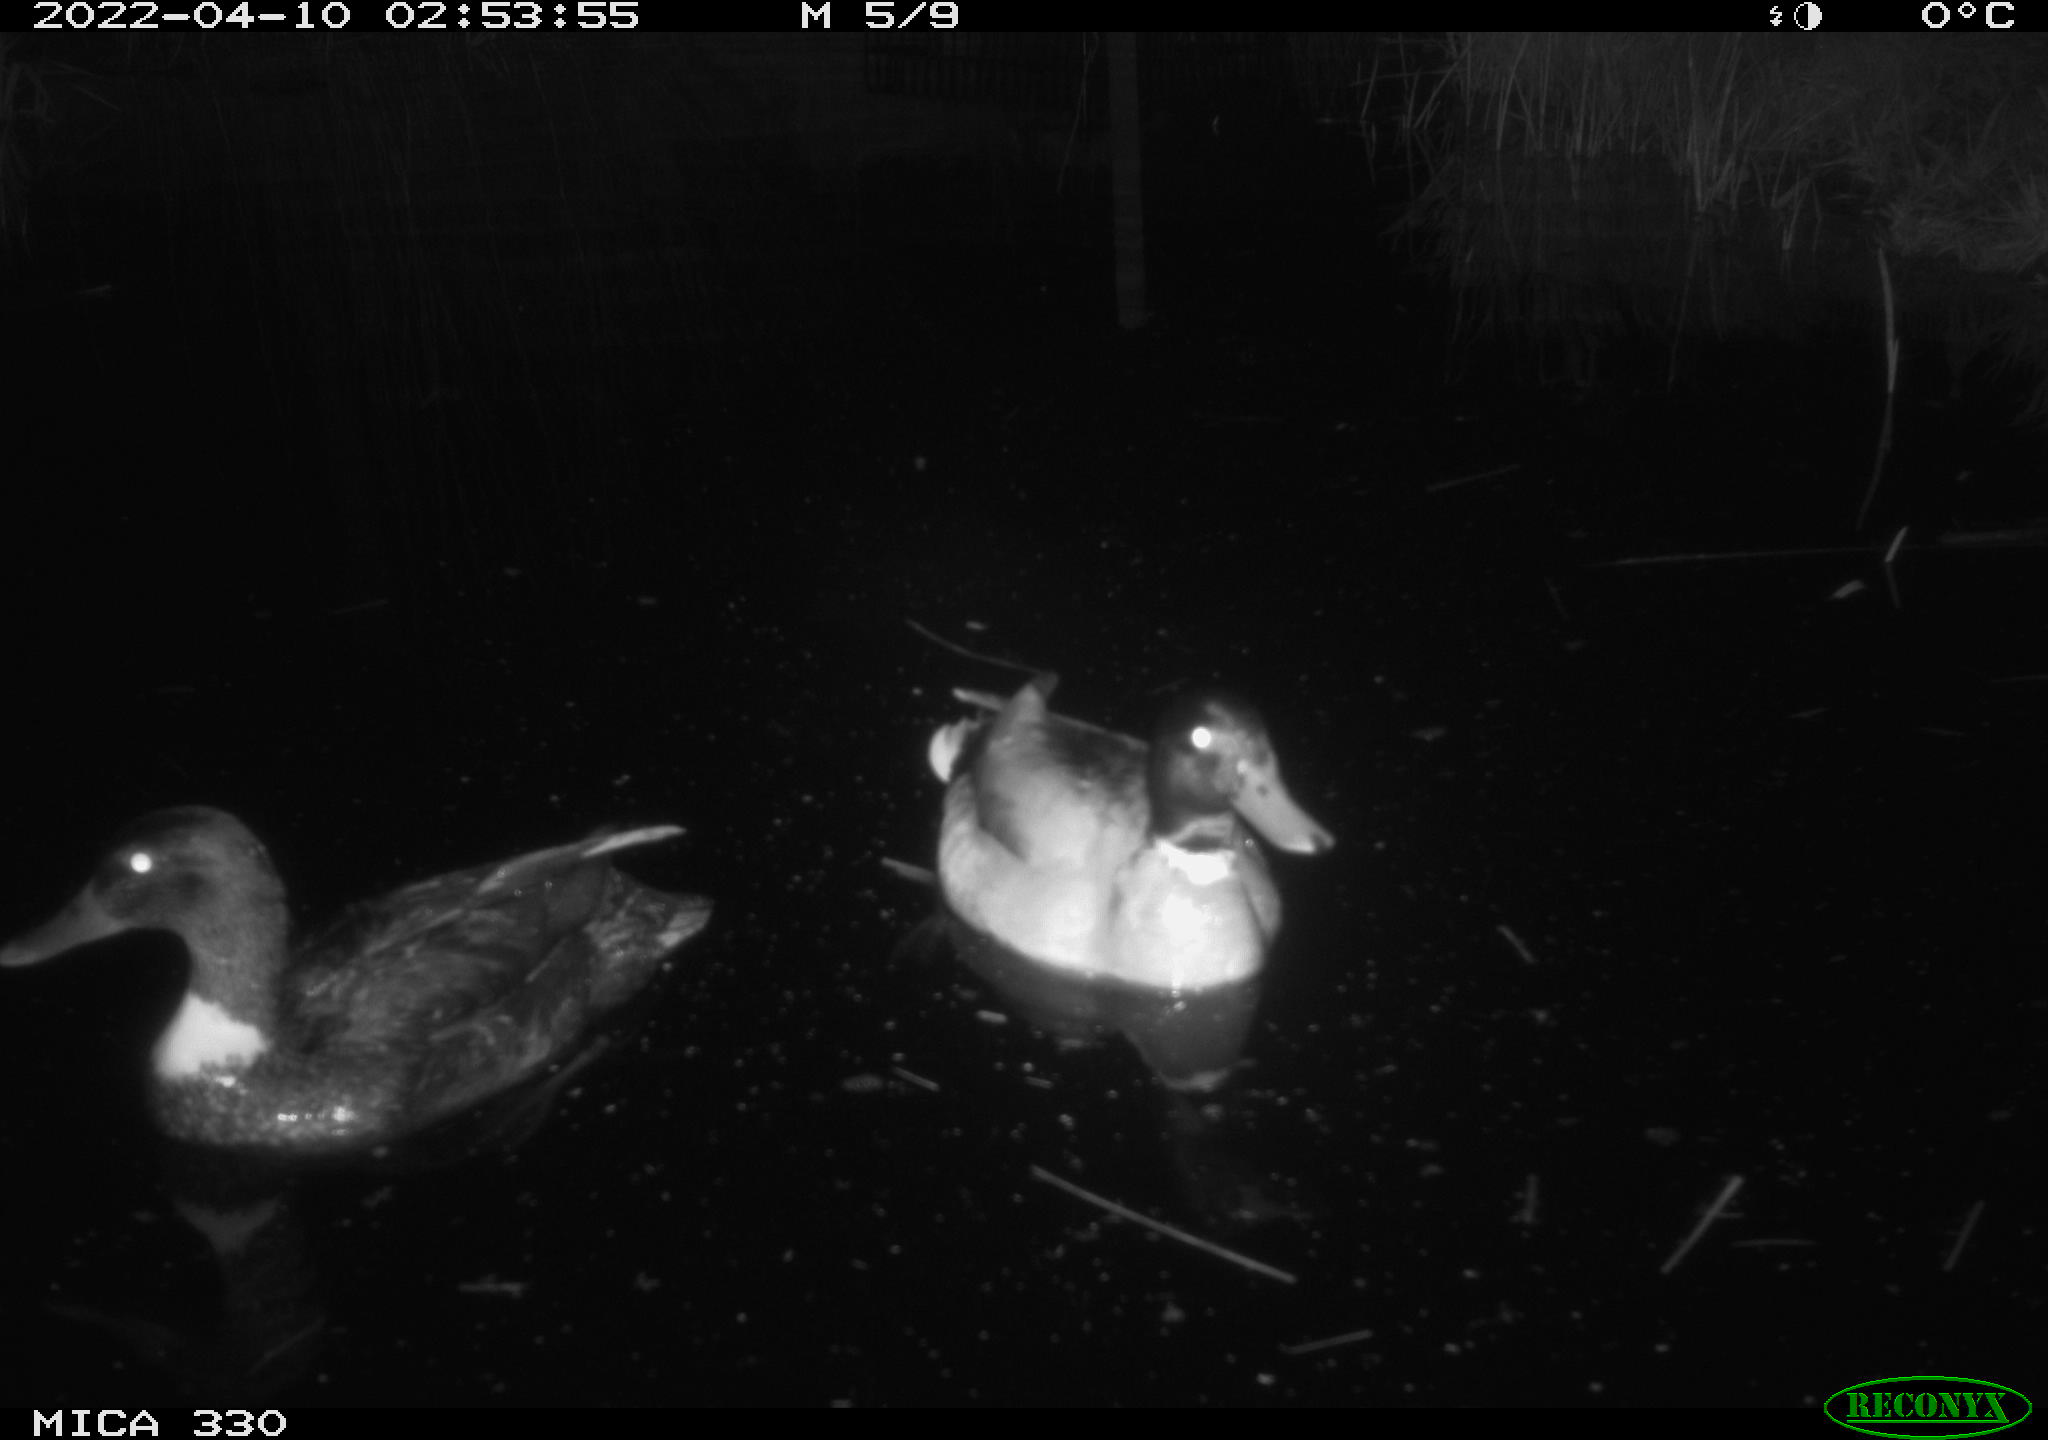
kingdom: Animalia
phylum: Chordata
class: Aves
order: Anseriformes
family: Anatidae
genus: Anas
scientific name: Anas platyrhynchos
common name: Mallard
